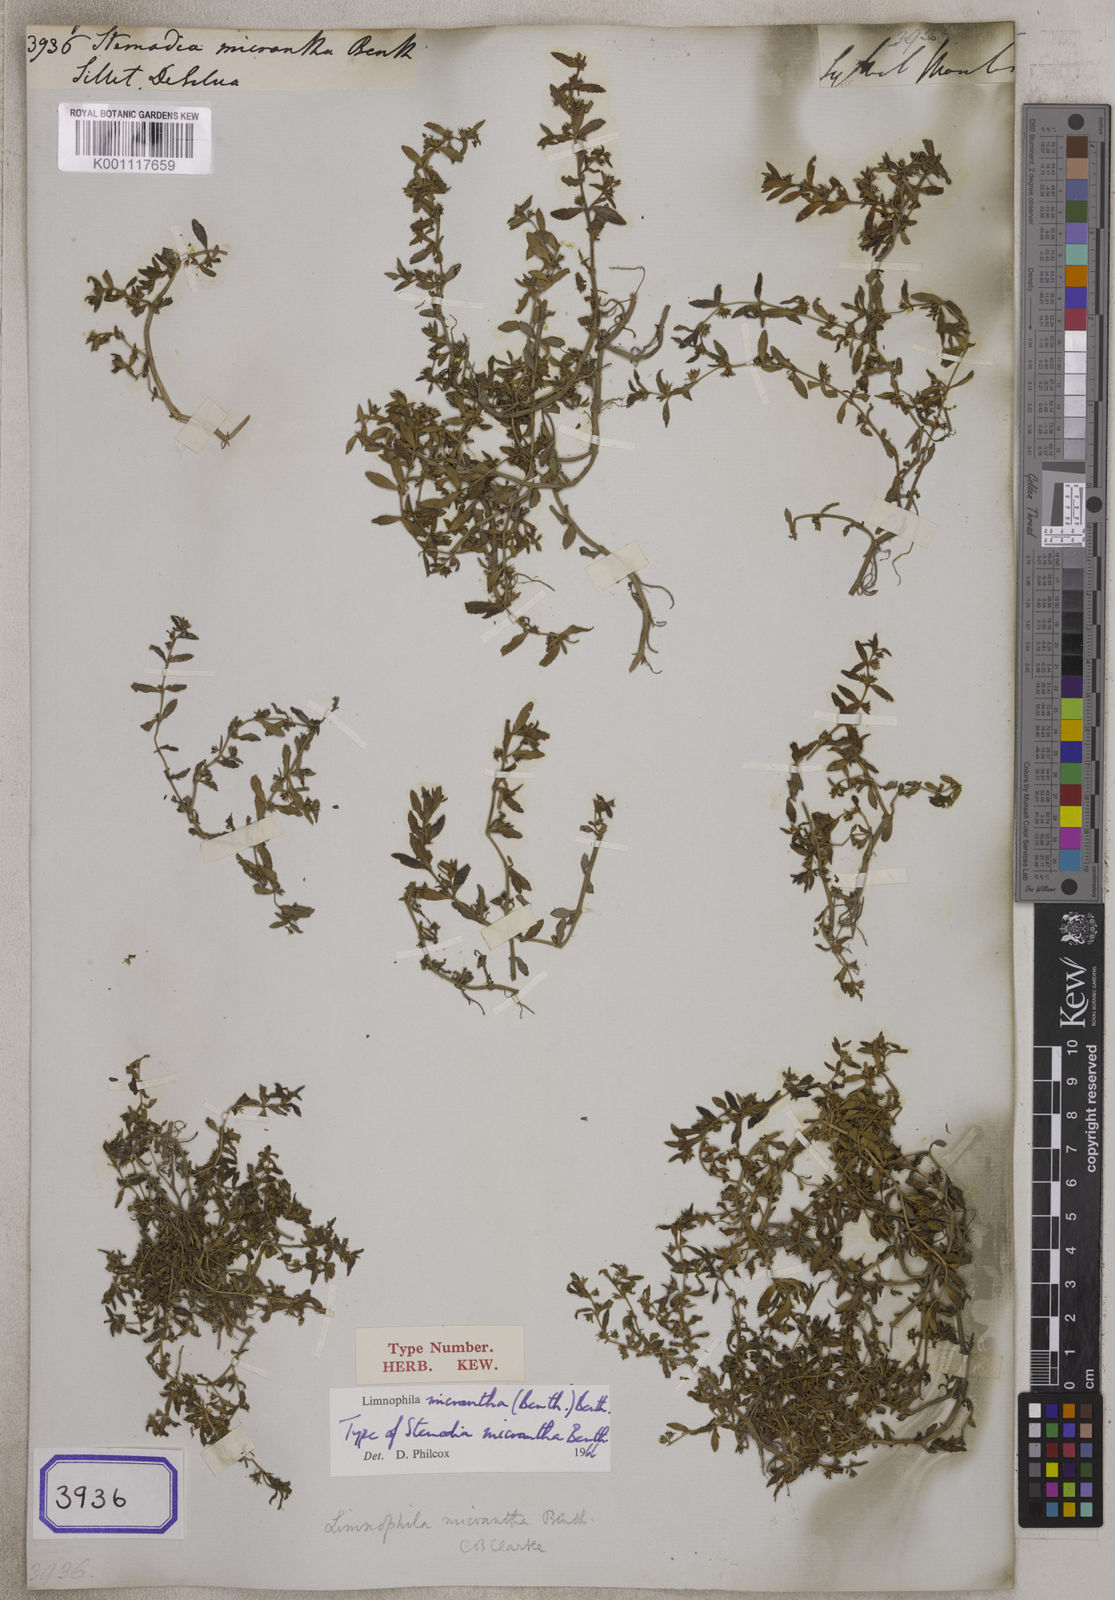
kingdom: Plantae
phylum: Tracheophyta
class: Magnoliopsida
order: Lamiales
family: Plantaginaceae
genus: Limnophila
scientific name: Limnophila micrantha
